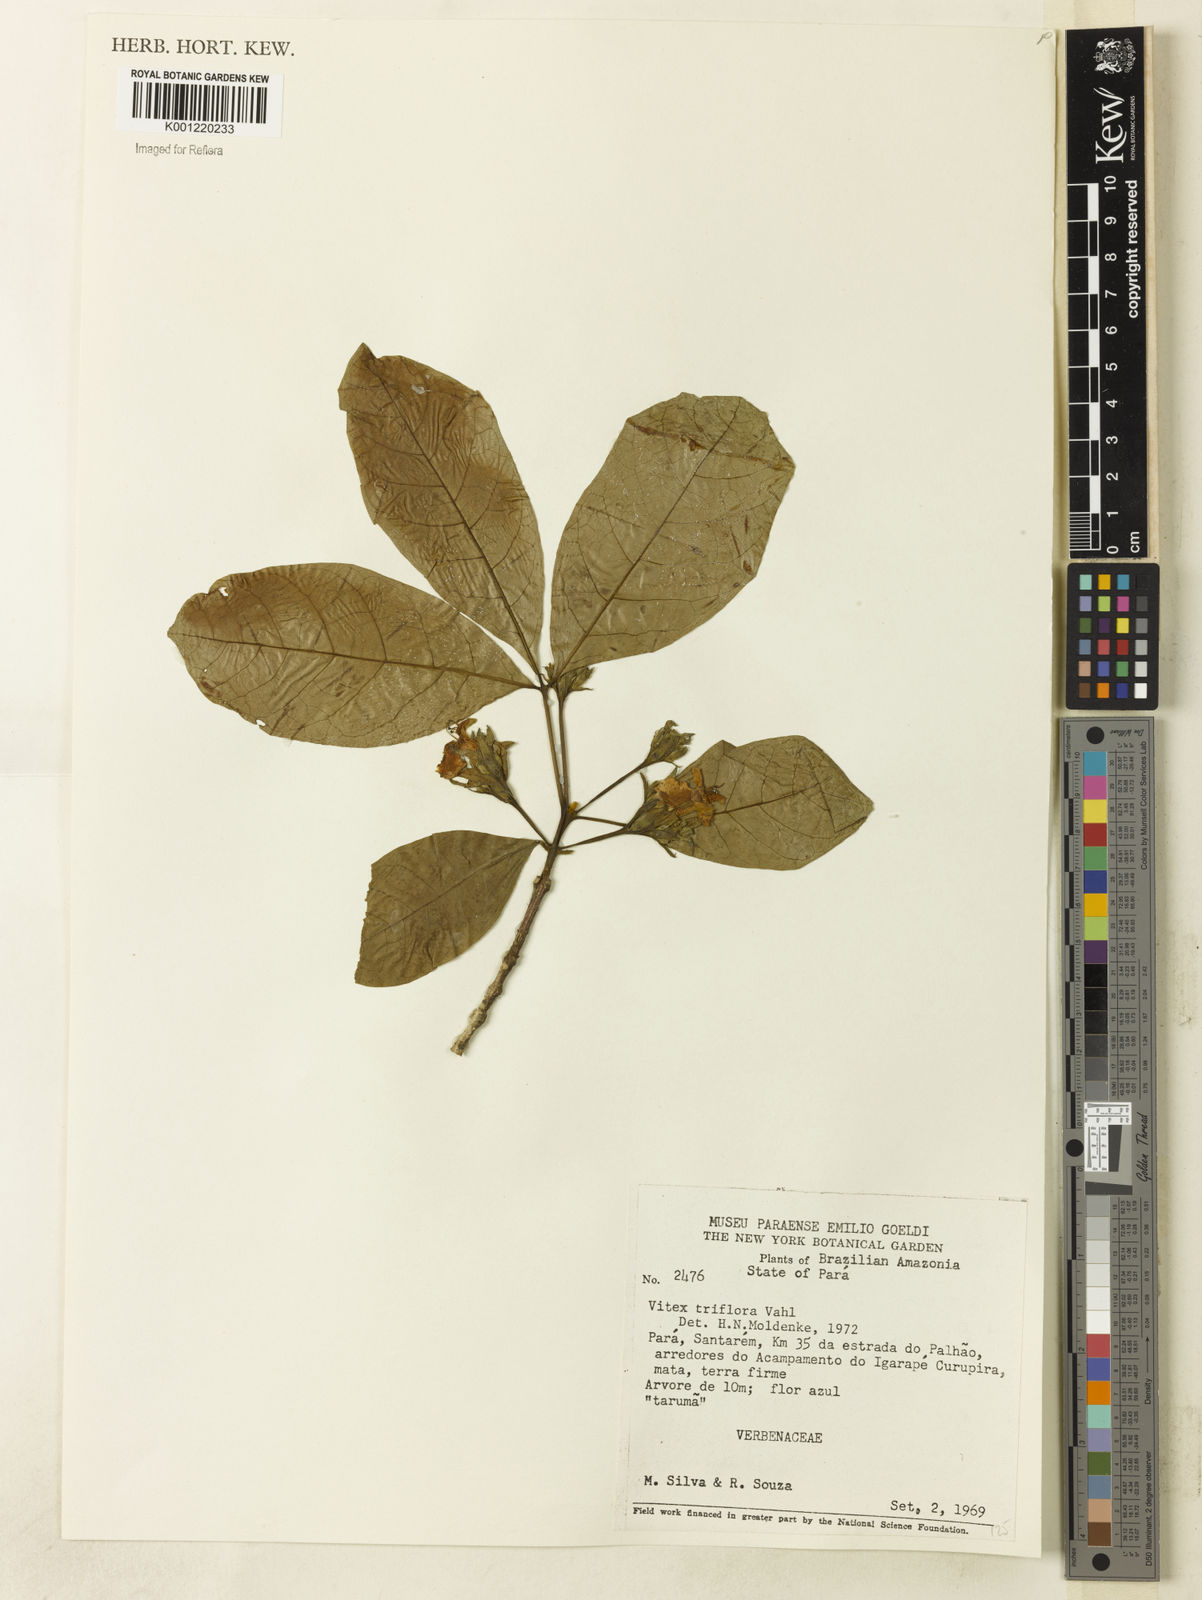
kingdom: Plantae
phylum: Tracheophyta
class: Magnoliopsida
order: Lamiales
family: Lamiaceae
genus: Vitex
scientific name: Vitex triflora
